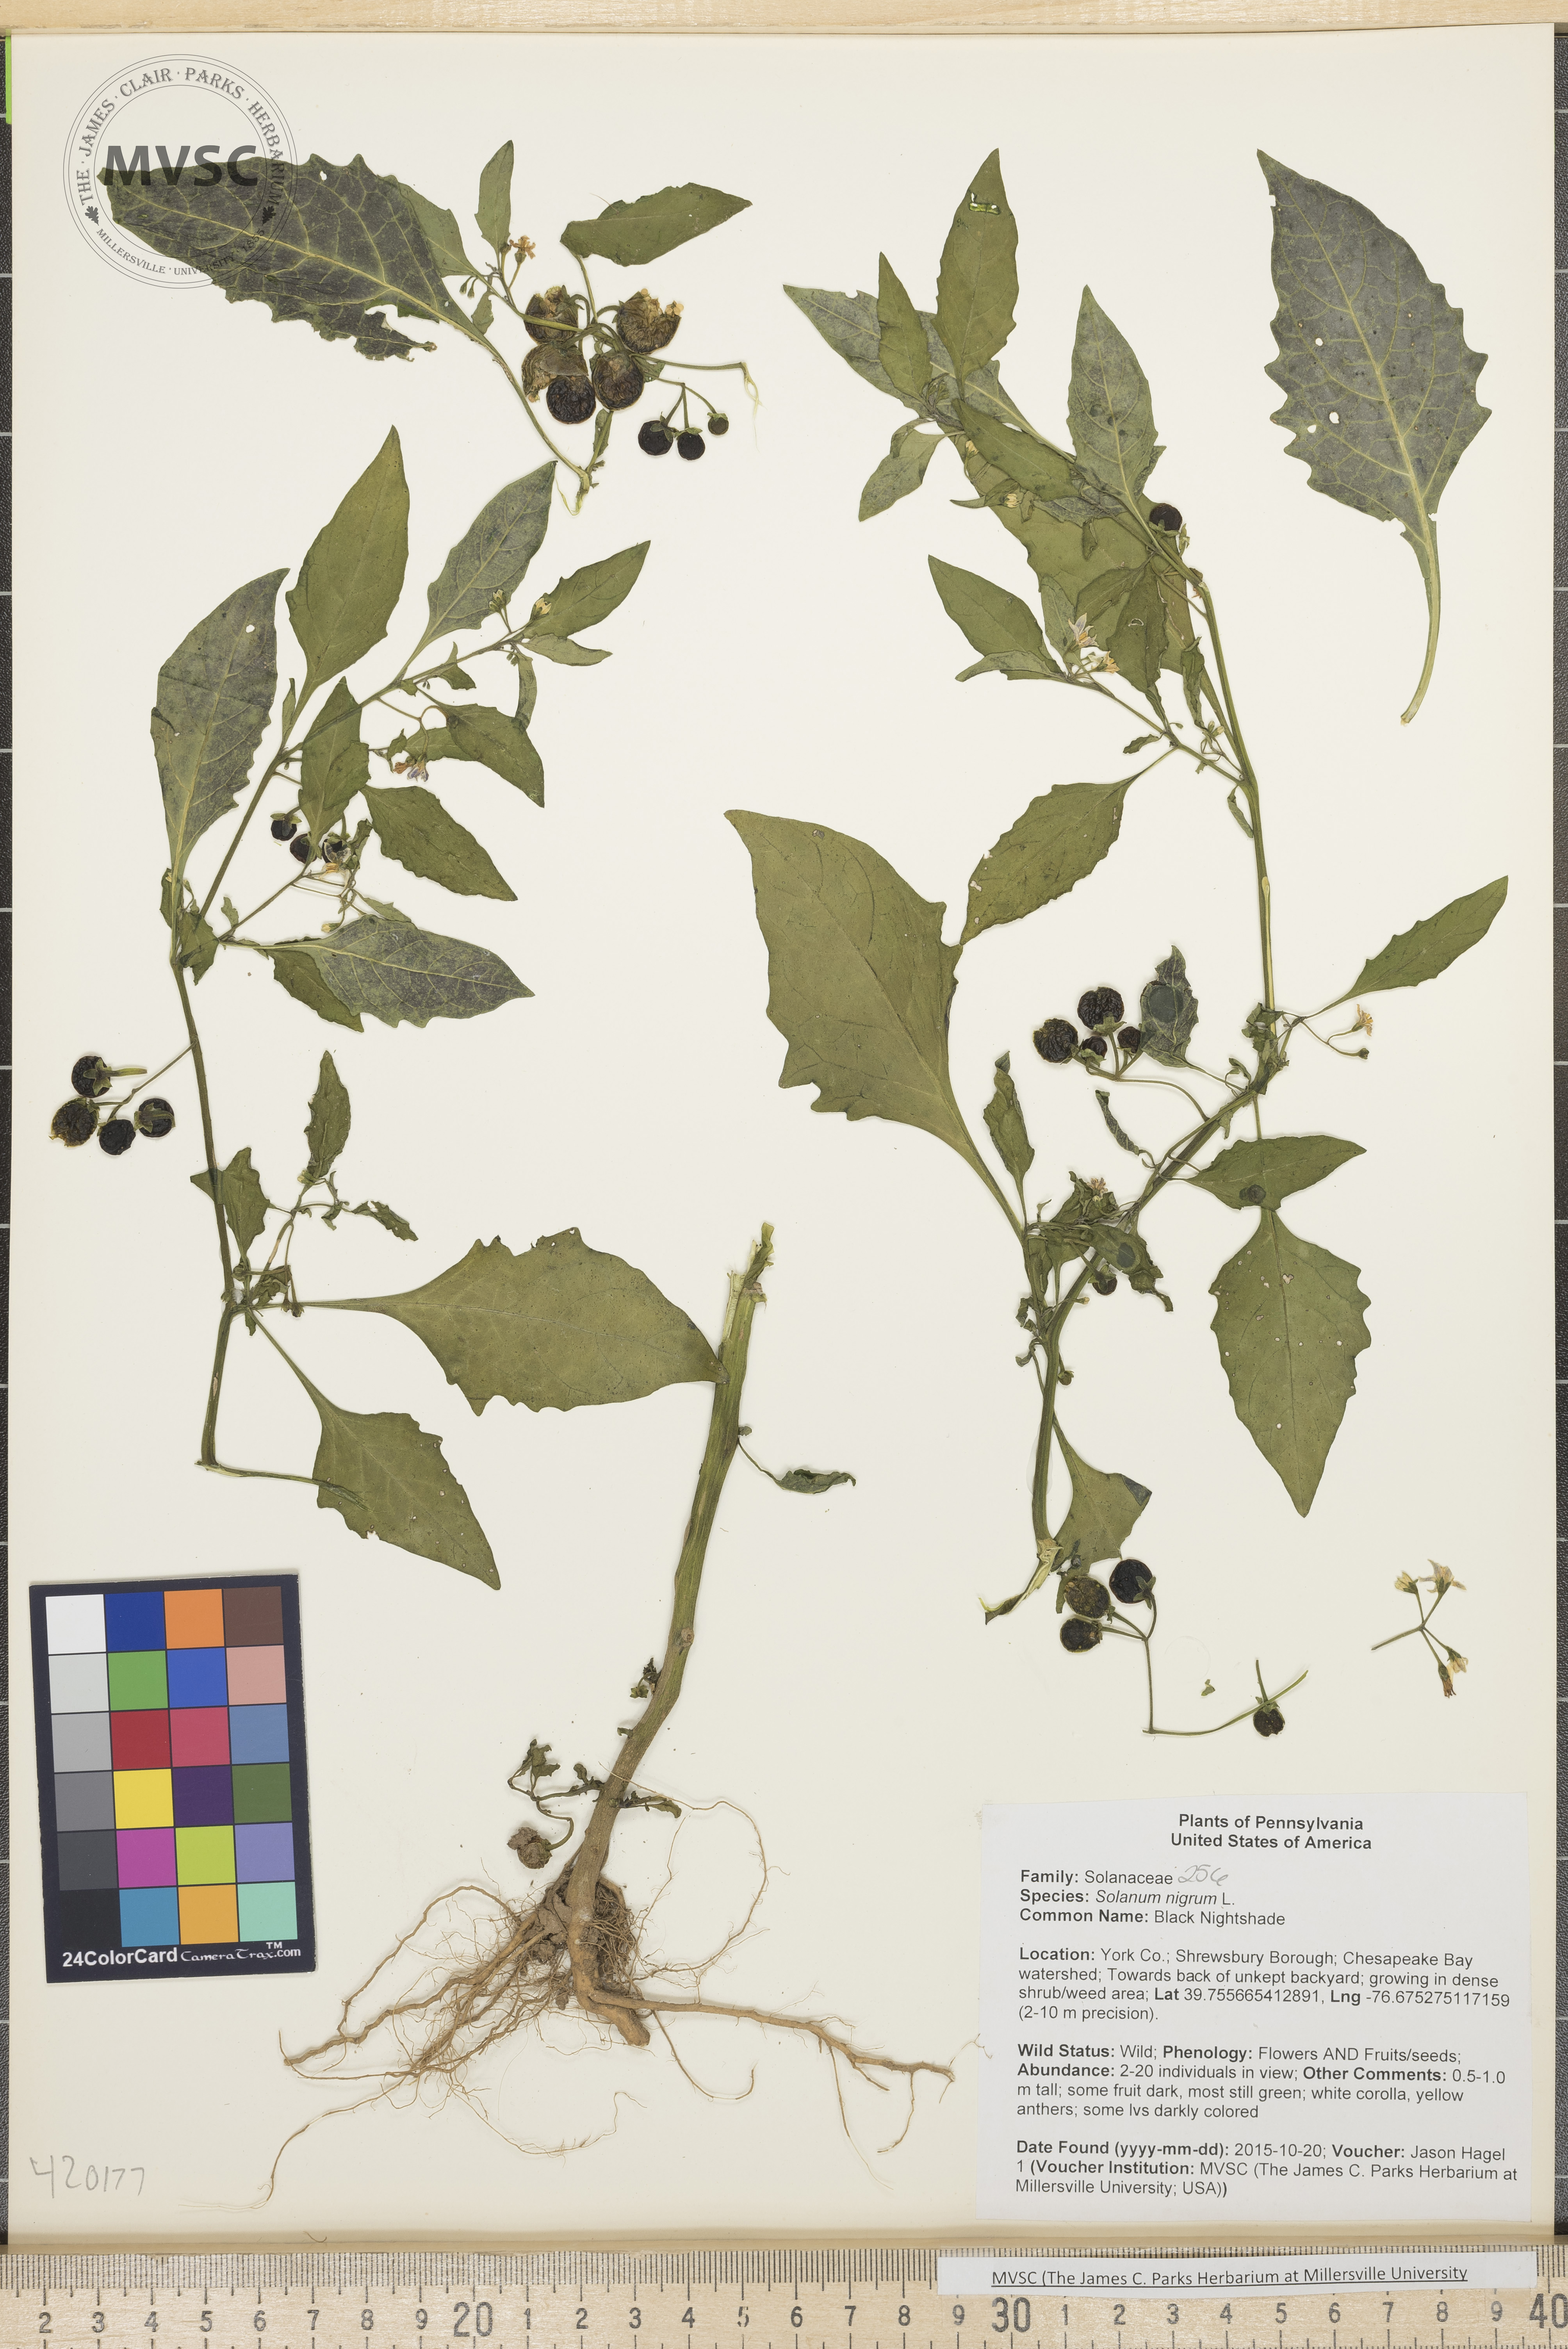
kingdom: Plantae
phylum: Tracheophyta
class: Magnoliopsida
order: Solanales
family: Solanaceae
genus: Solanum
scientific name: Solanum americanum
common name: Black Nightshade
